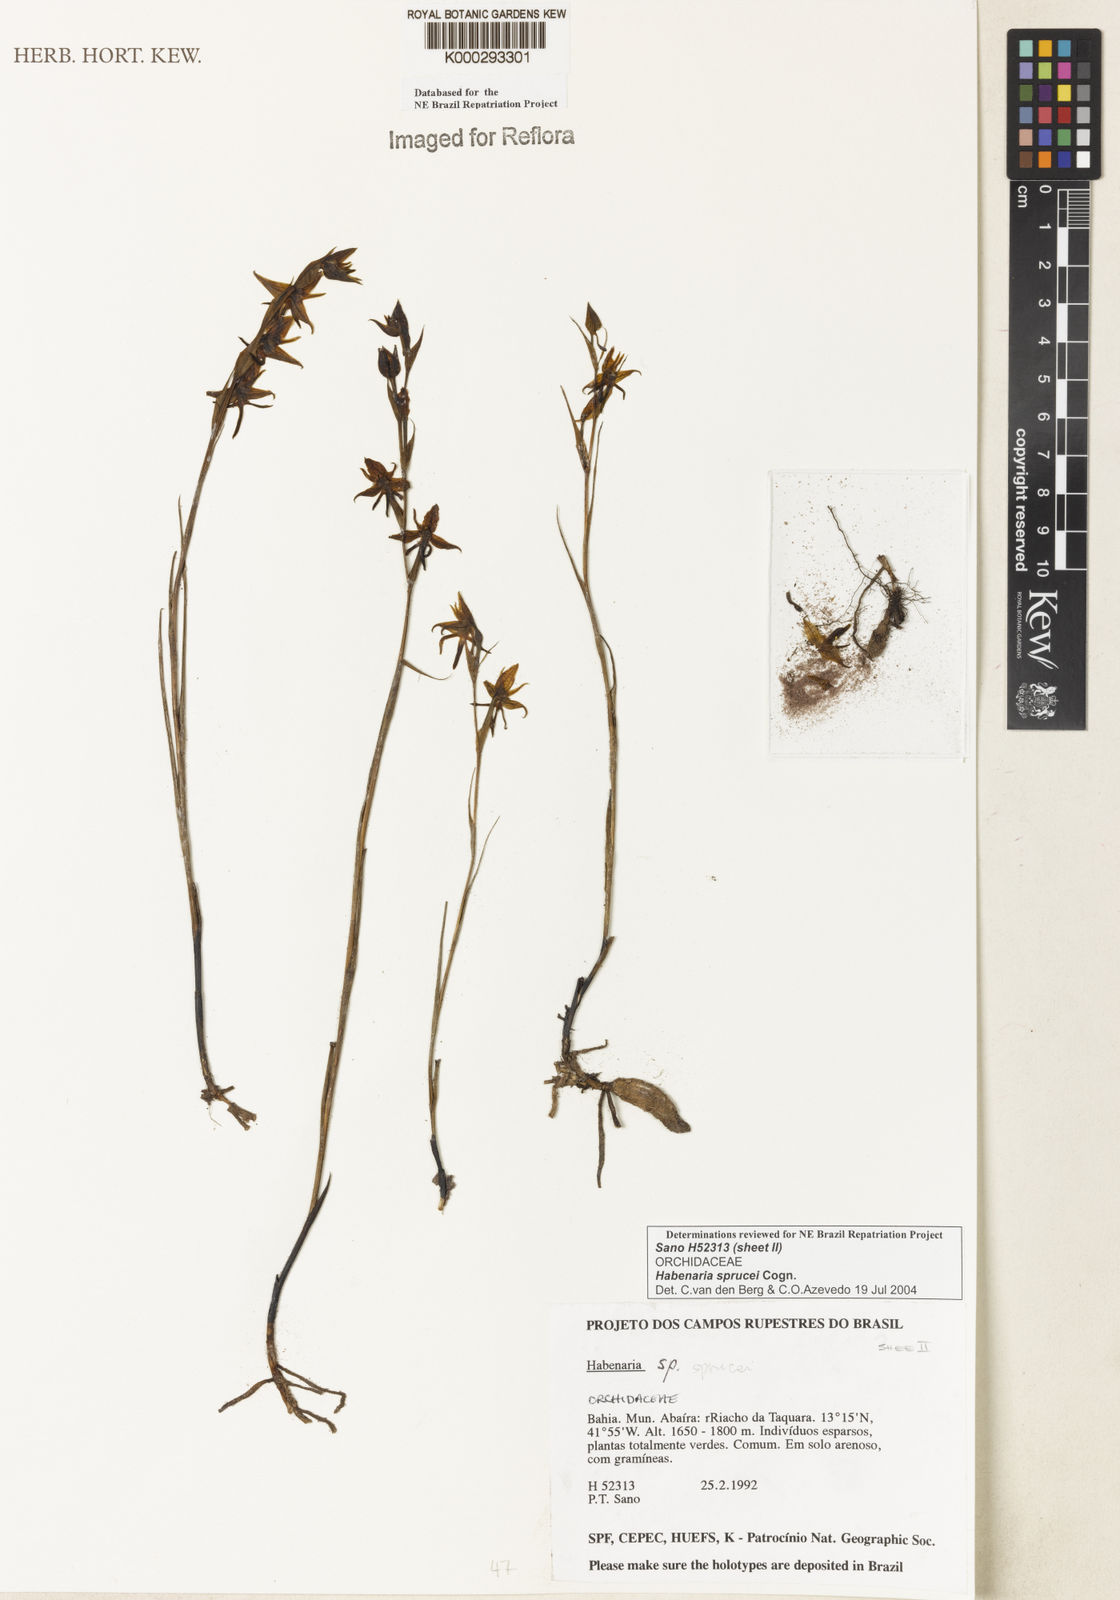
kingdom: Plantae
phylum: Tracheophyta
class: Liliopsida
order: Asparagales
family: Orchidaceae
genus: Habenaria
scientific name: Habenaria sprucei
